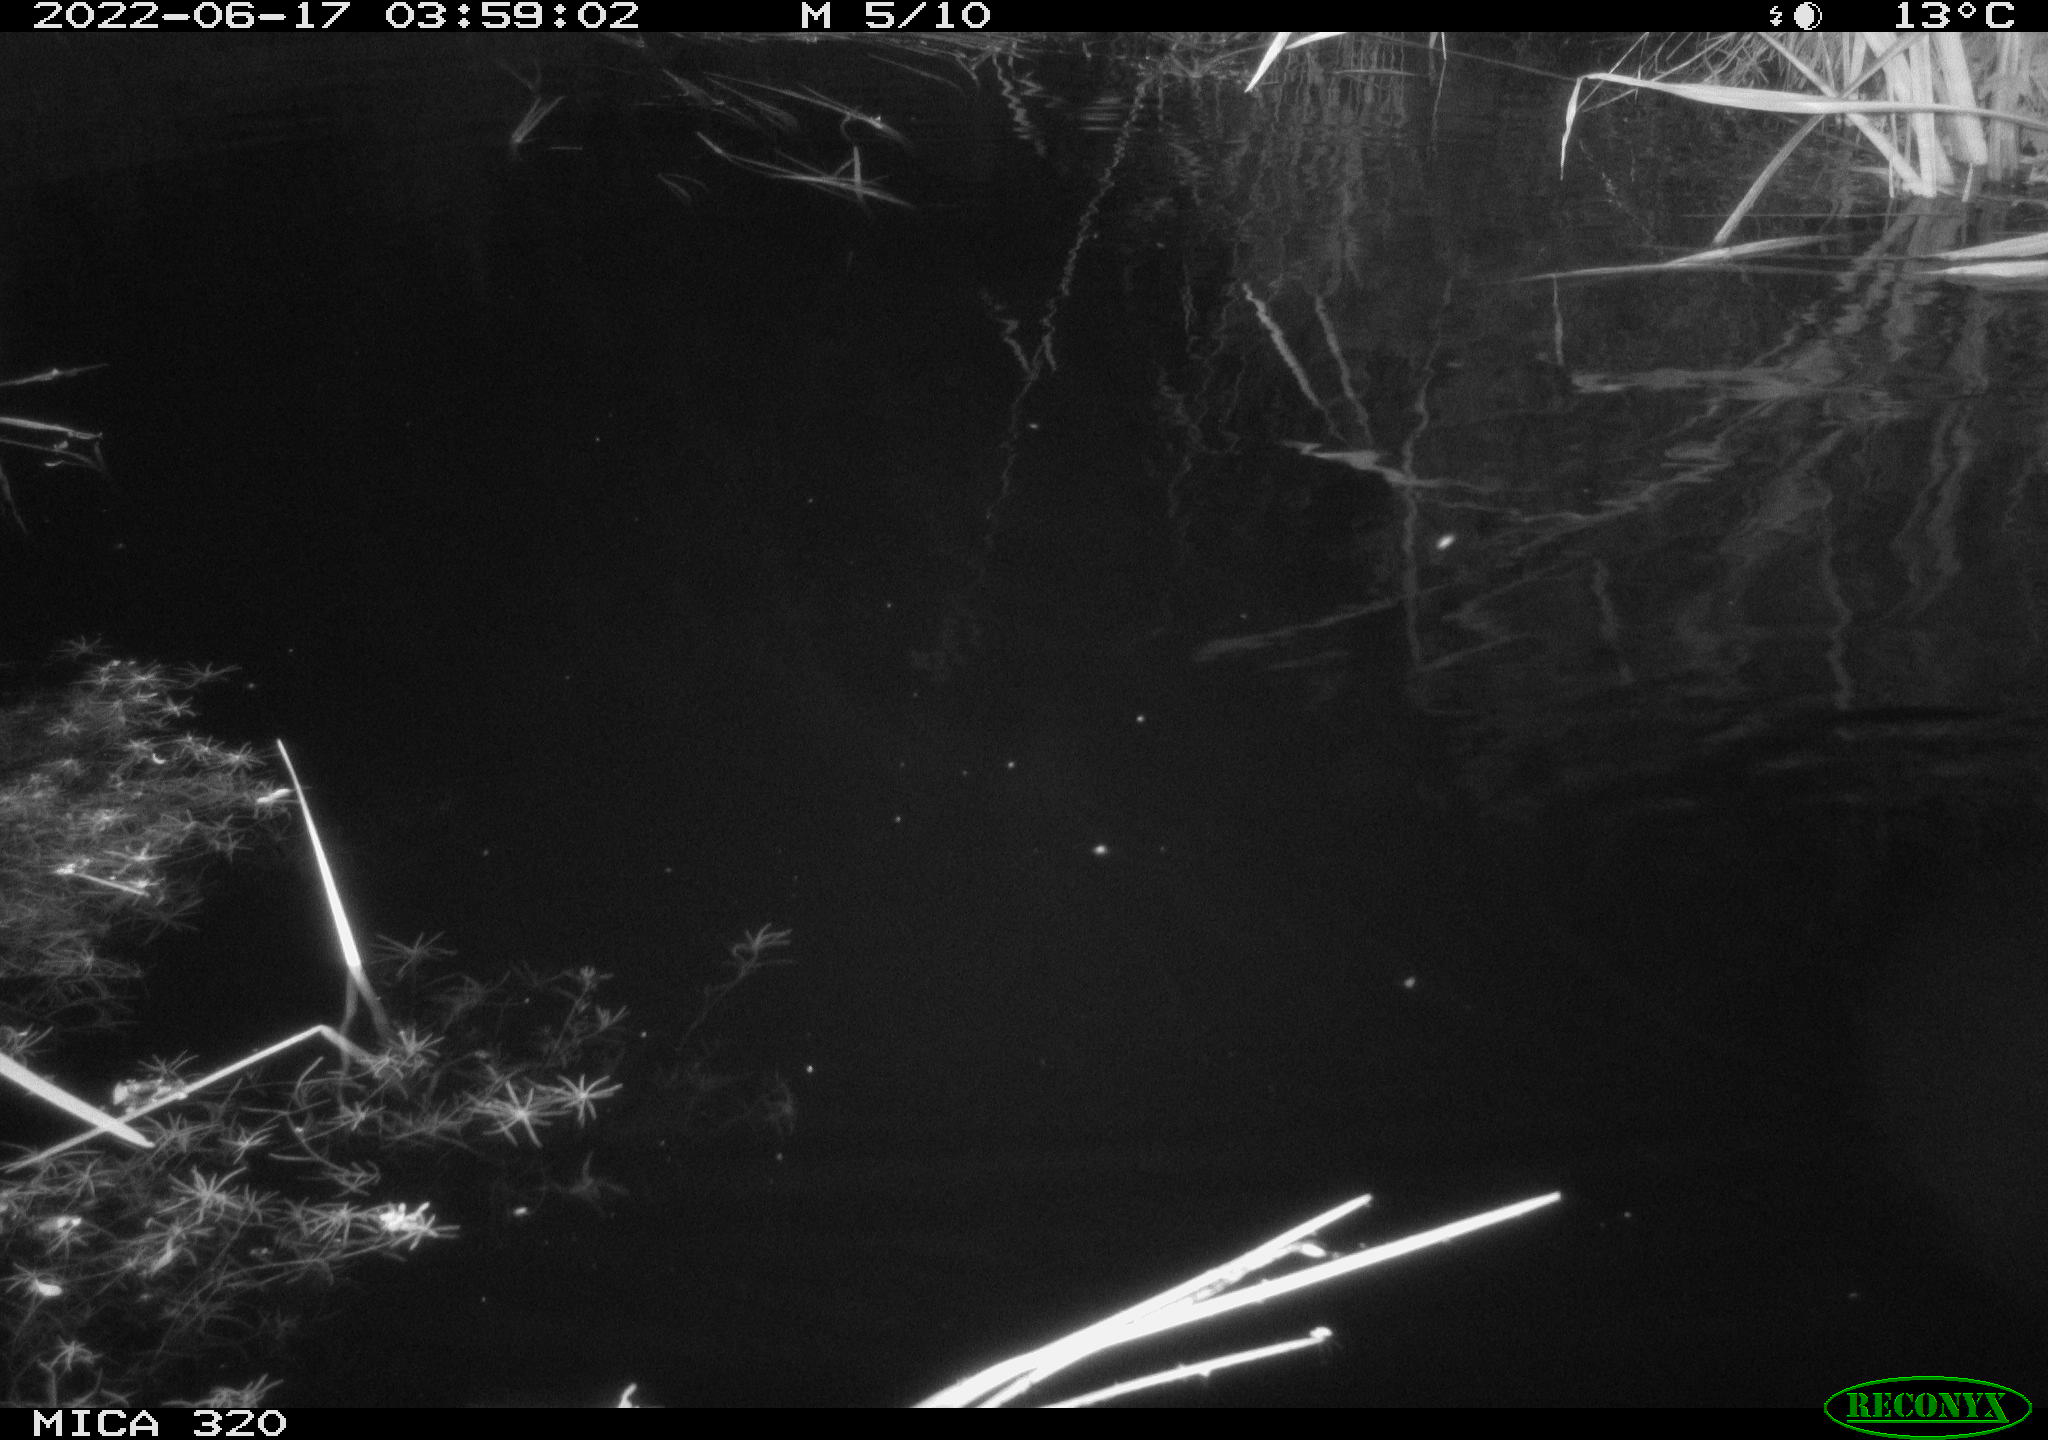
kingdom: Animalia
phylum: Chordata
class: Aves
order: Anseriformes
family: Anatidae
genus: Mareca
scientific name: Mareca strepera
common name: Gadwall
